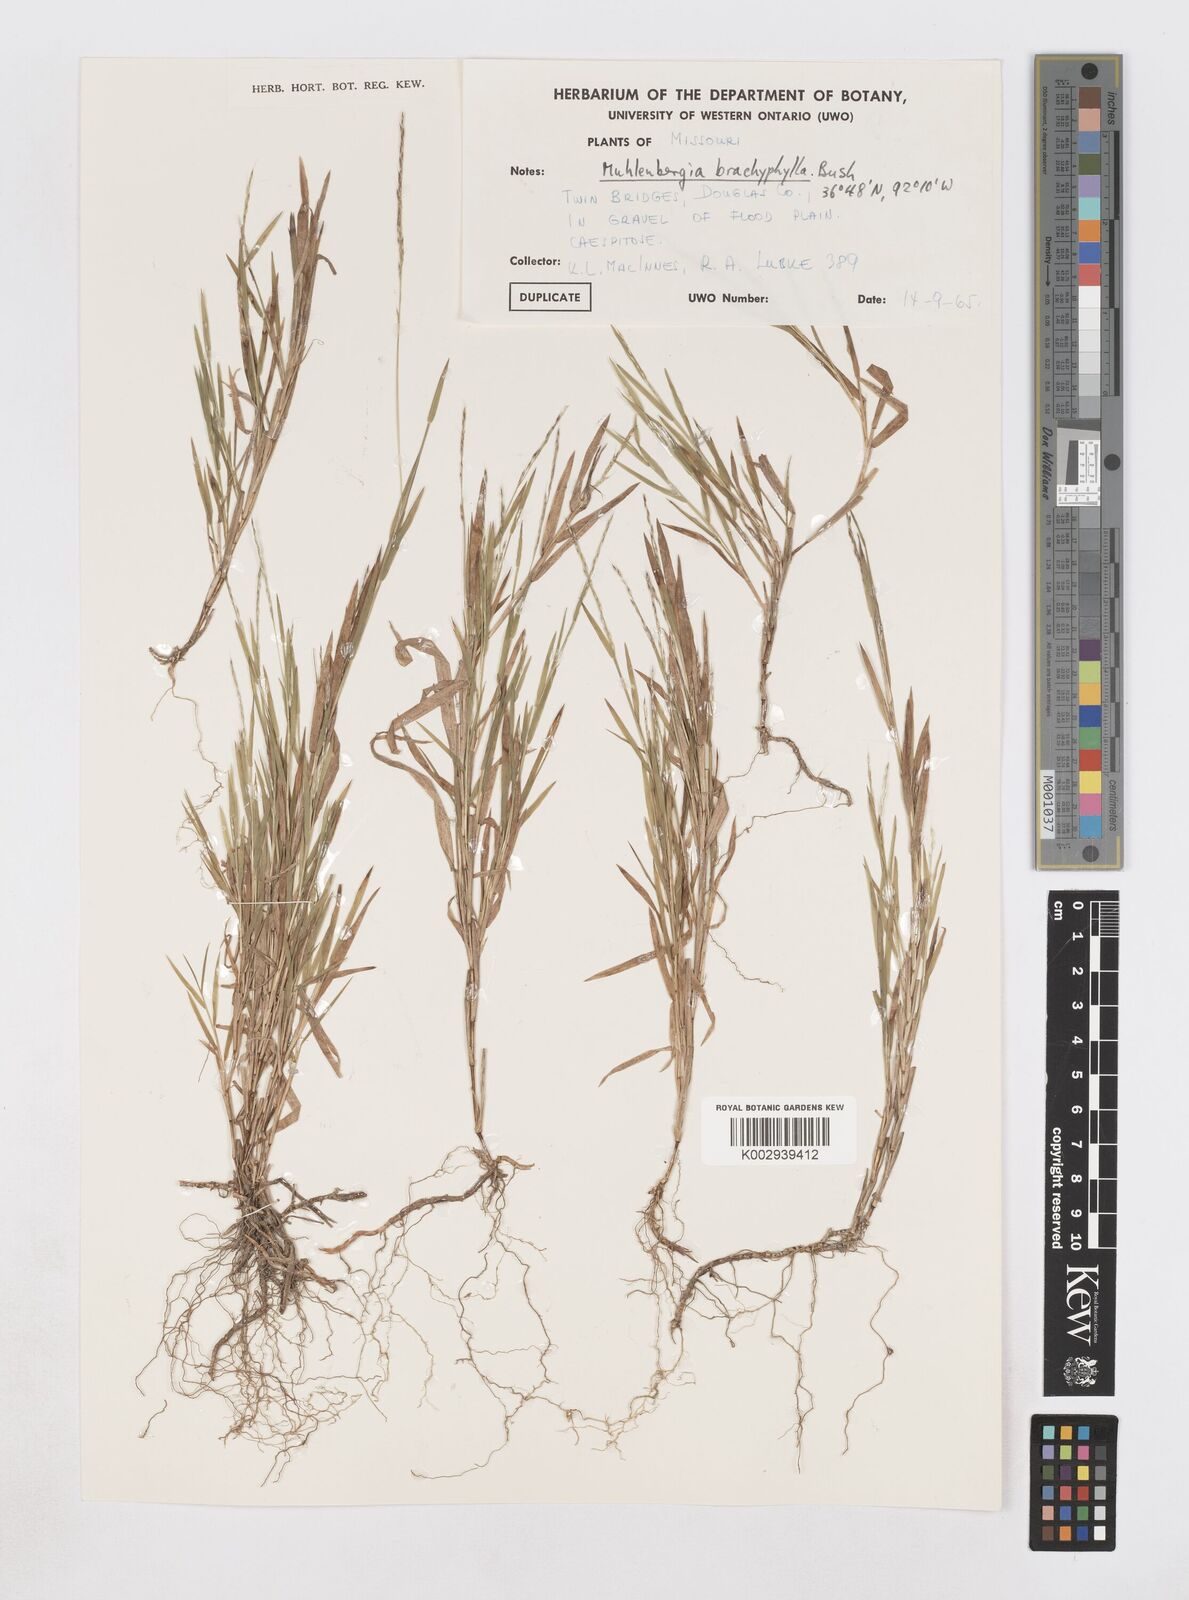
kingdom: Plantae
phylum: Tracheophyta
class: Liliopsida
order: Poales
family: Poaceae
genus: Muhlenbergia
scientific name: Muhlenbergia bushii
